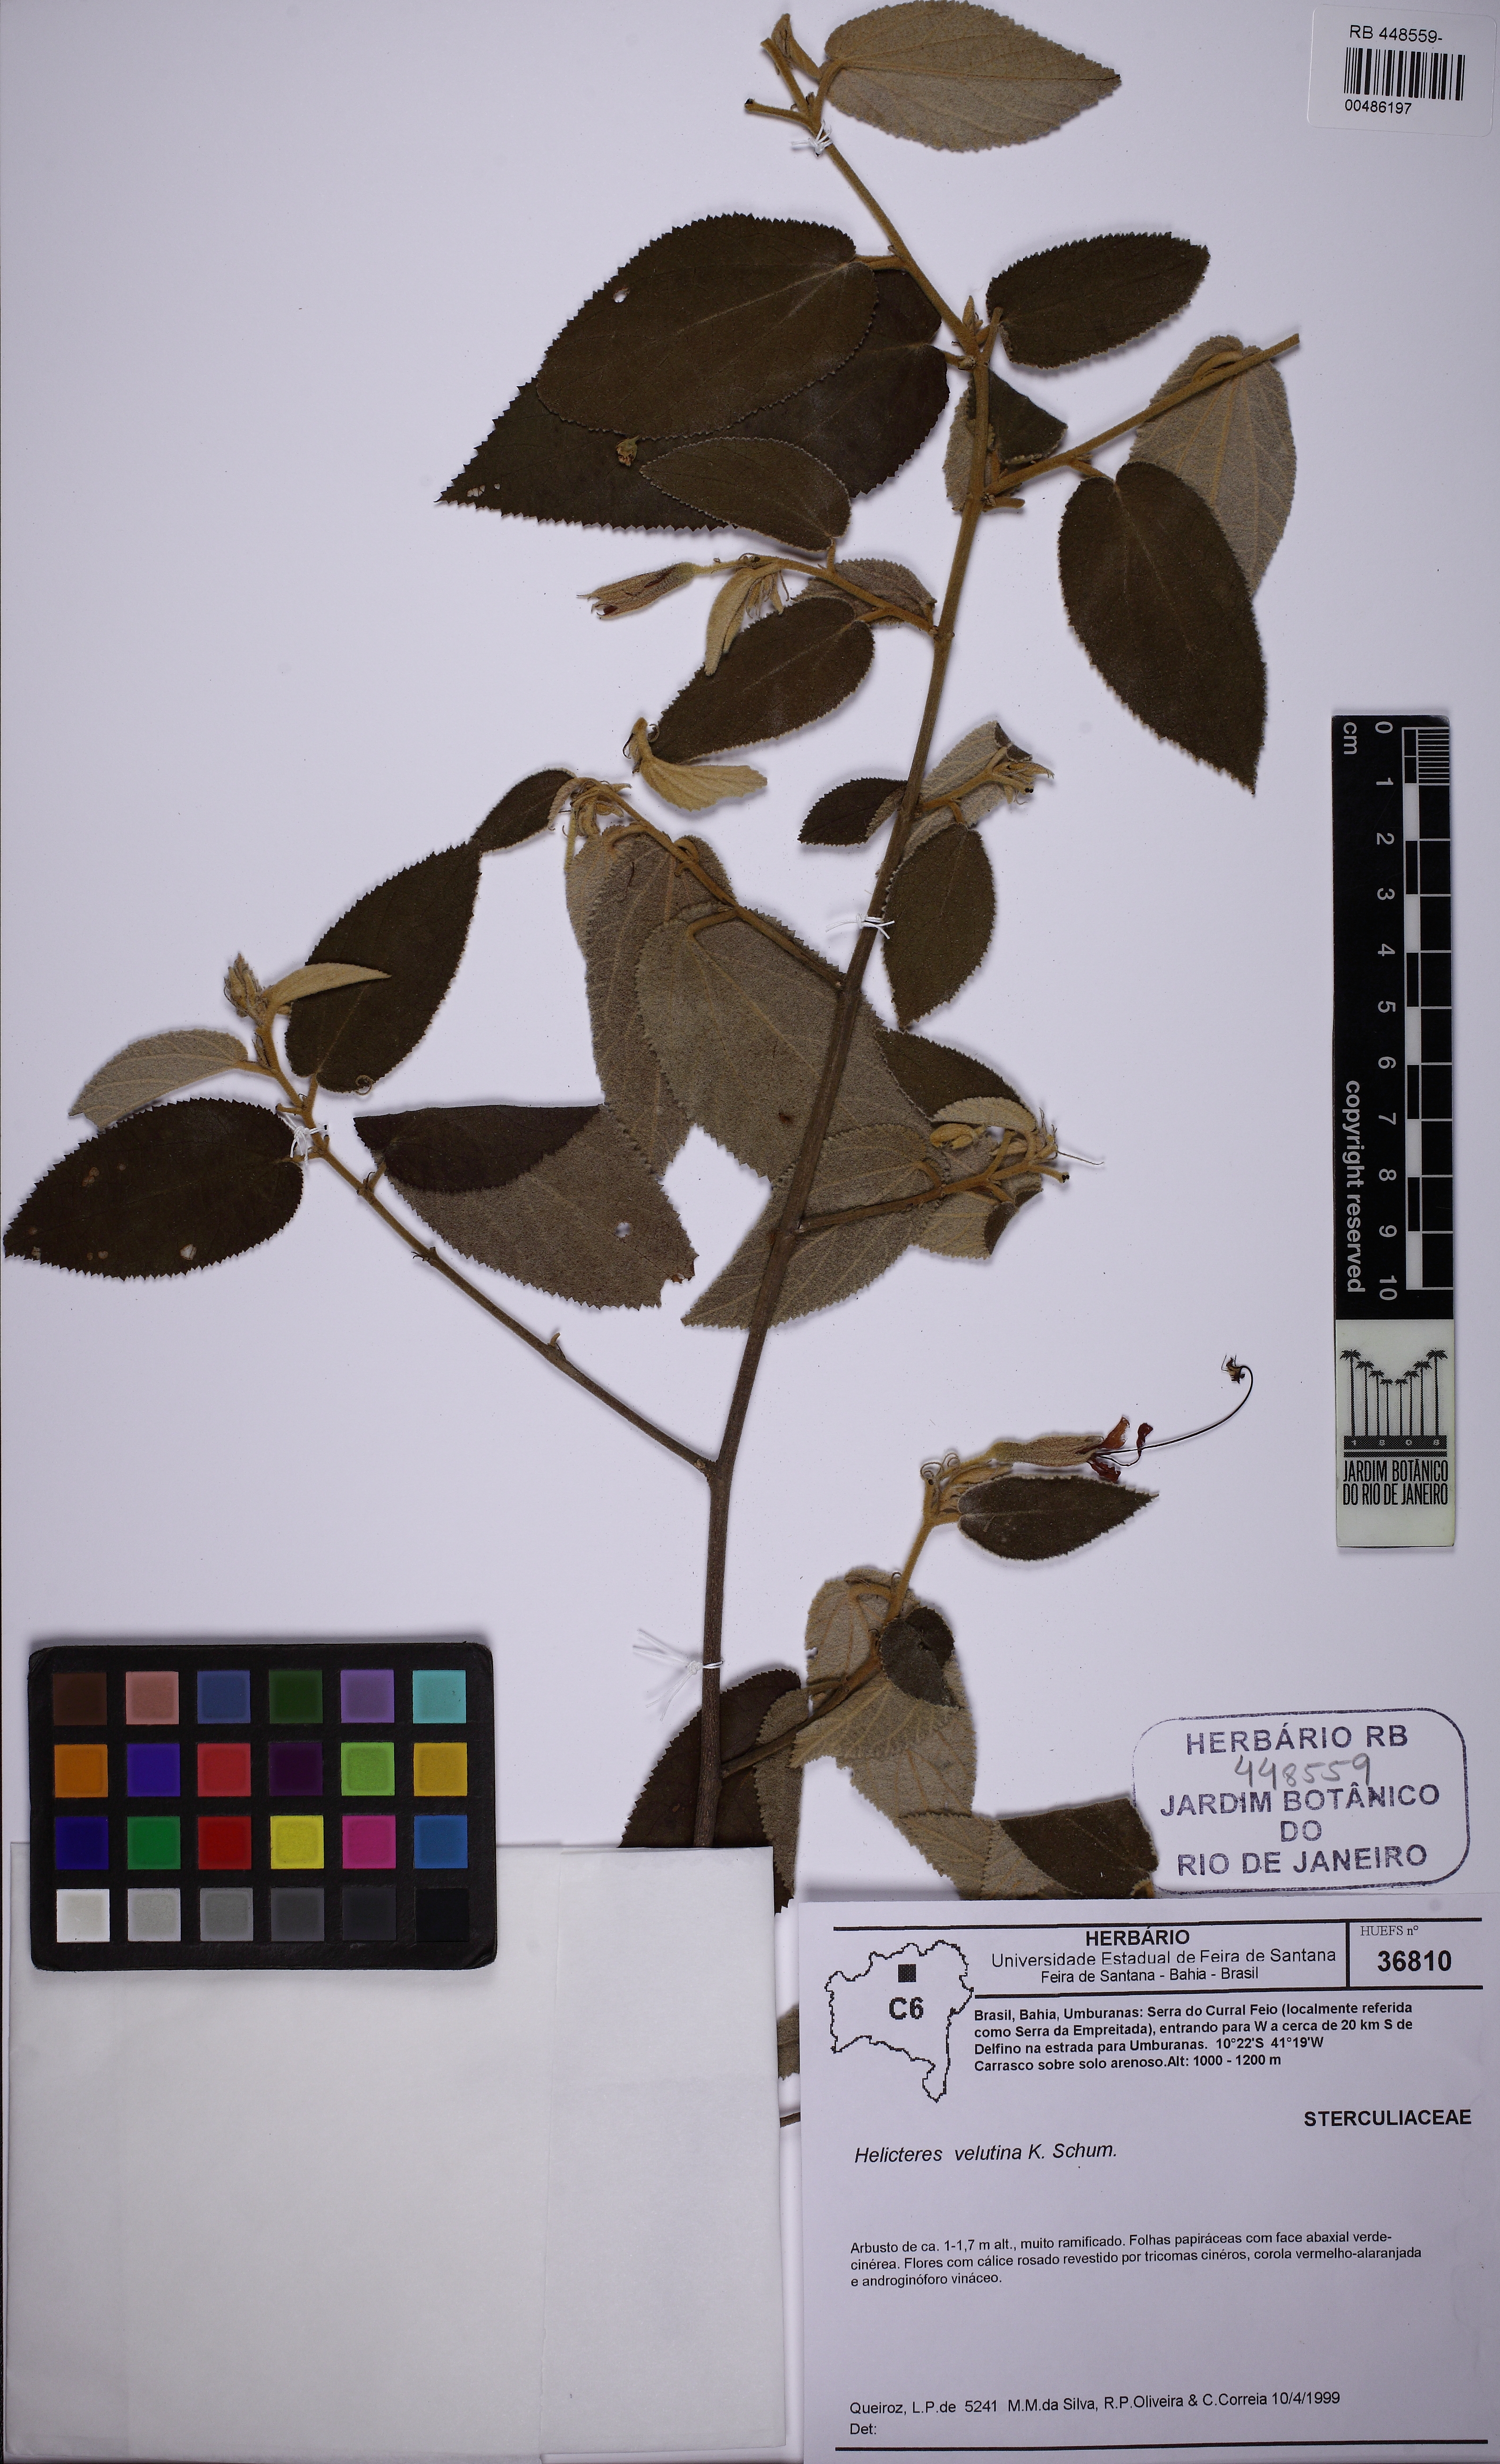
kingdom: Plantae
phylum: Tracheophyta
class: Magnoliopsida
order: Malvales
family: Malvaceae
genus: Helicteres
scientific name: Helicteres velutina
